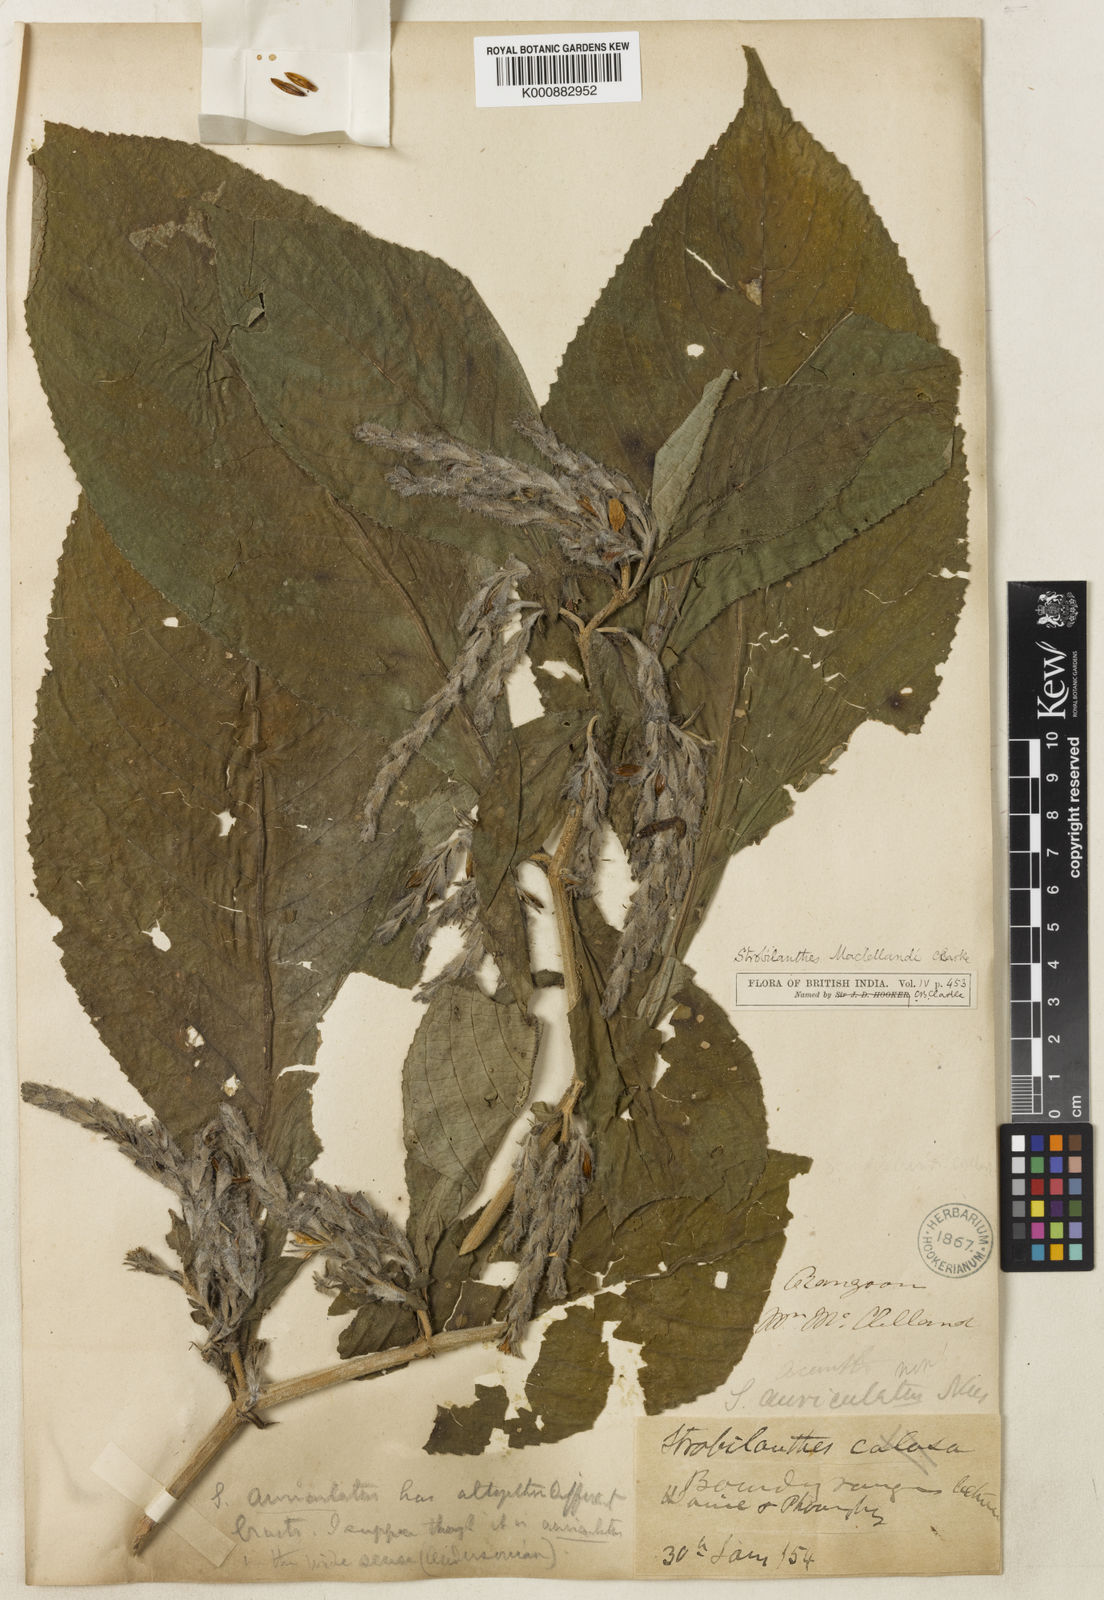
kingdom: Plantae
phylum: Tracheophyta
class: Magnoliopsida
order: Lamiales
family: Acanthaceae
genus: Strobilanthes
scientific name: Strobilanthes auriculata
